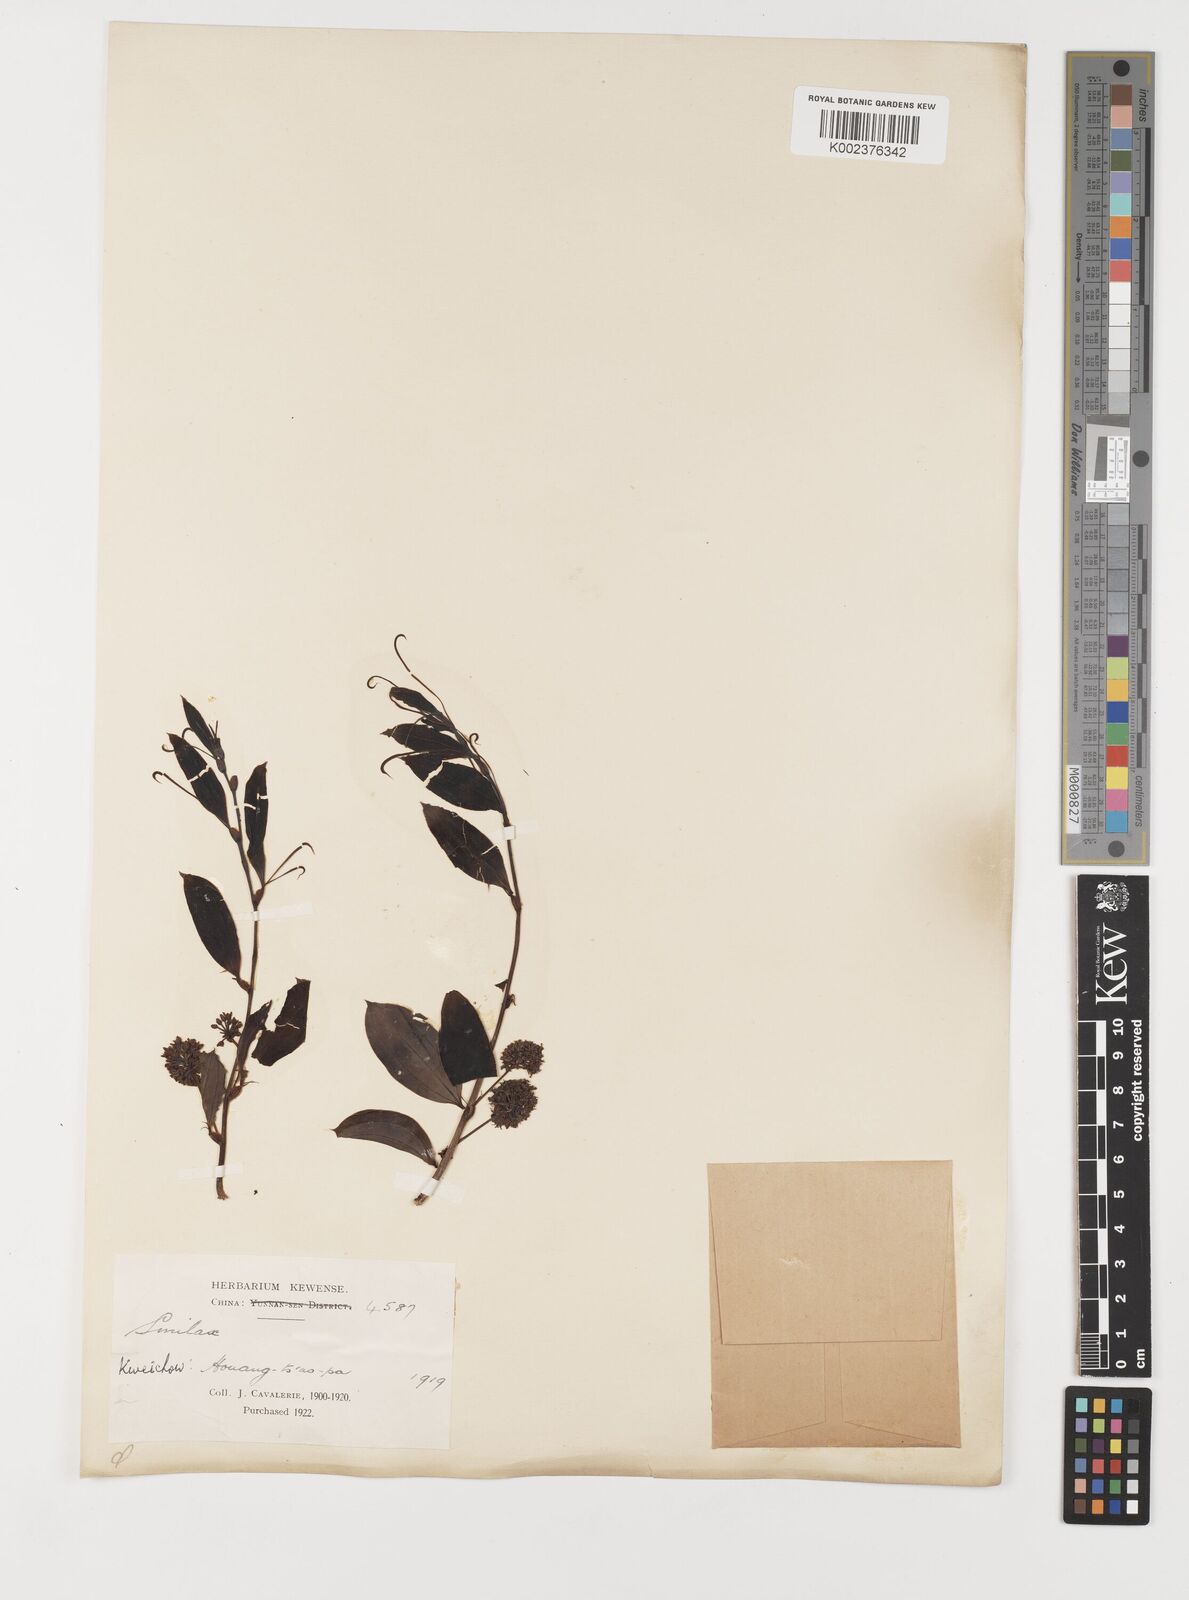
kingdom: Plantae
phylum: Tracheophyta
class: Liliopsida
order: Liliales
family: Smilacaceae
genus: Smilax
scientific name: Smilax china
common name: Chinaroot
